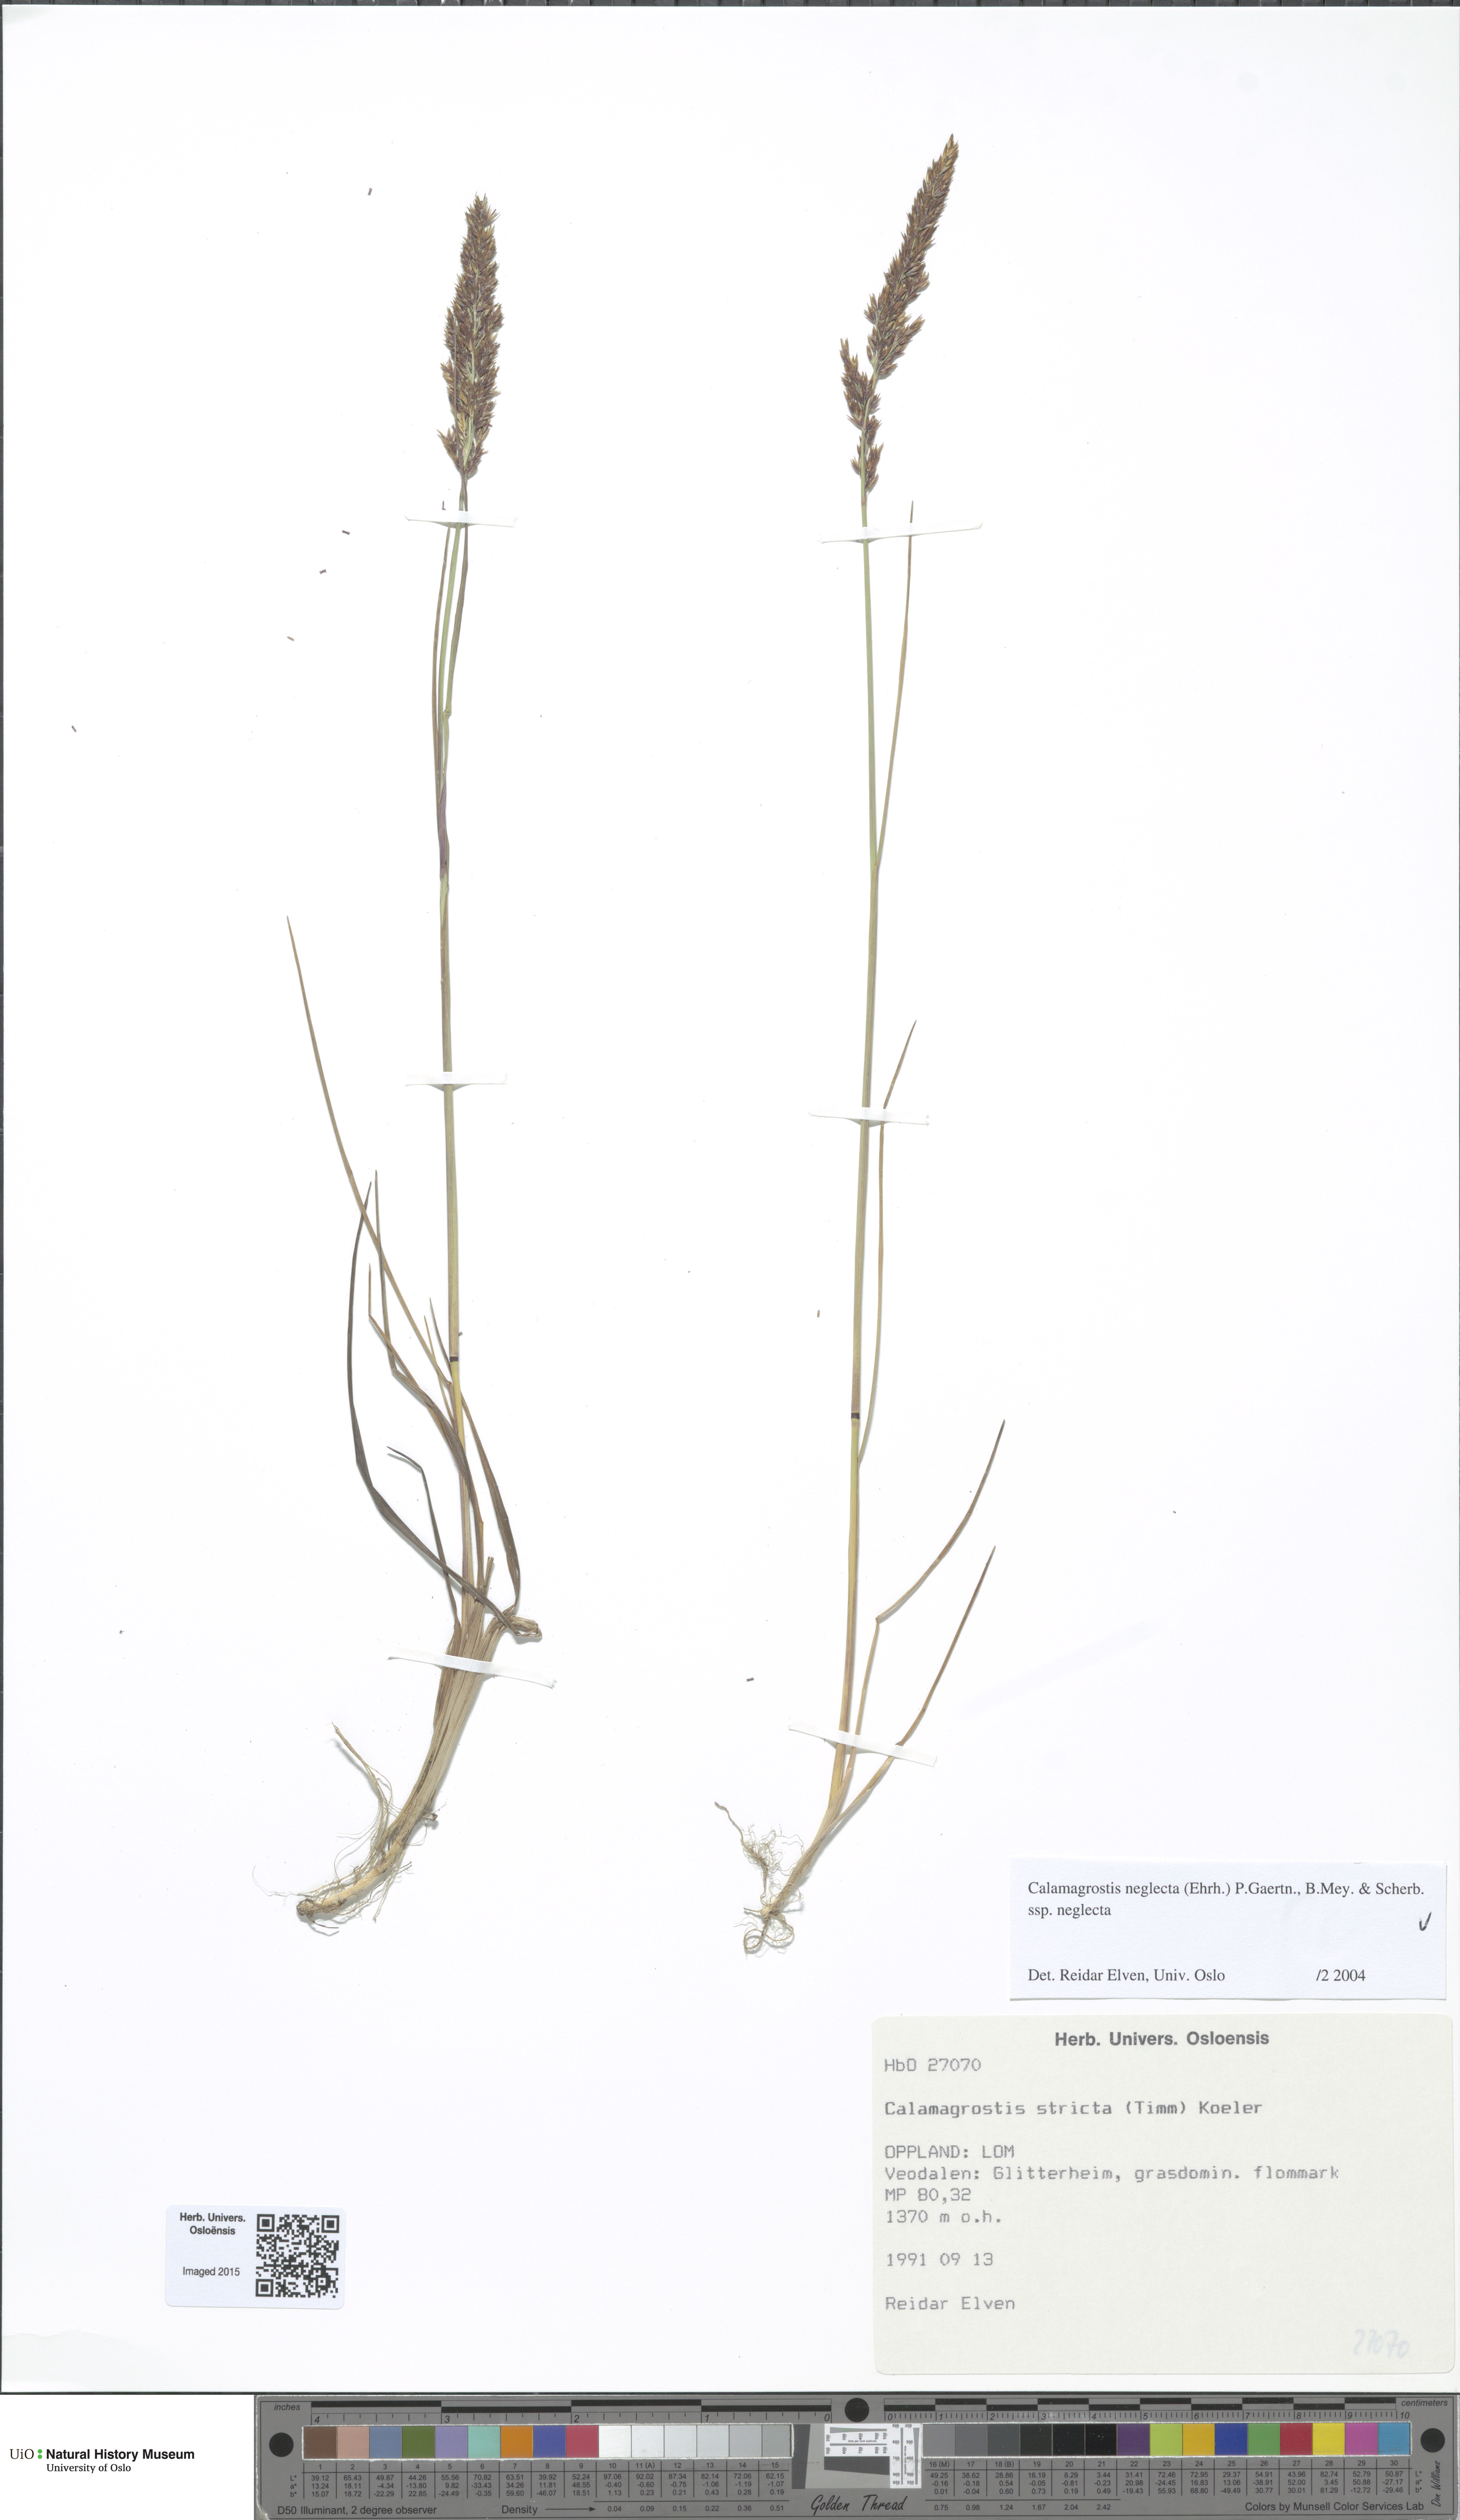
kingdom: Plantae
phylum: Tracheophyta
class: Liliopsida
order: Poales
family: Poaceae
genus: Achnatherum
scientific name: Achnatherum calamagrostis
